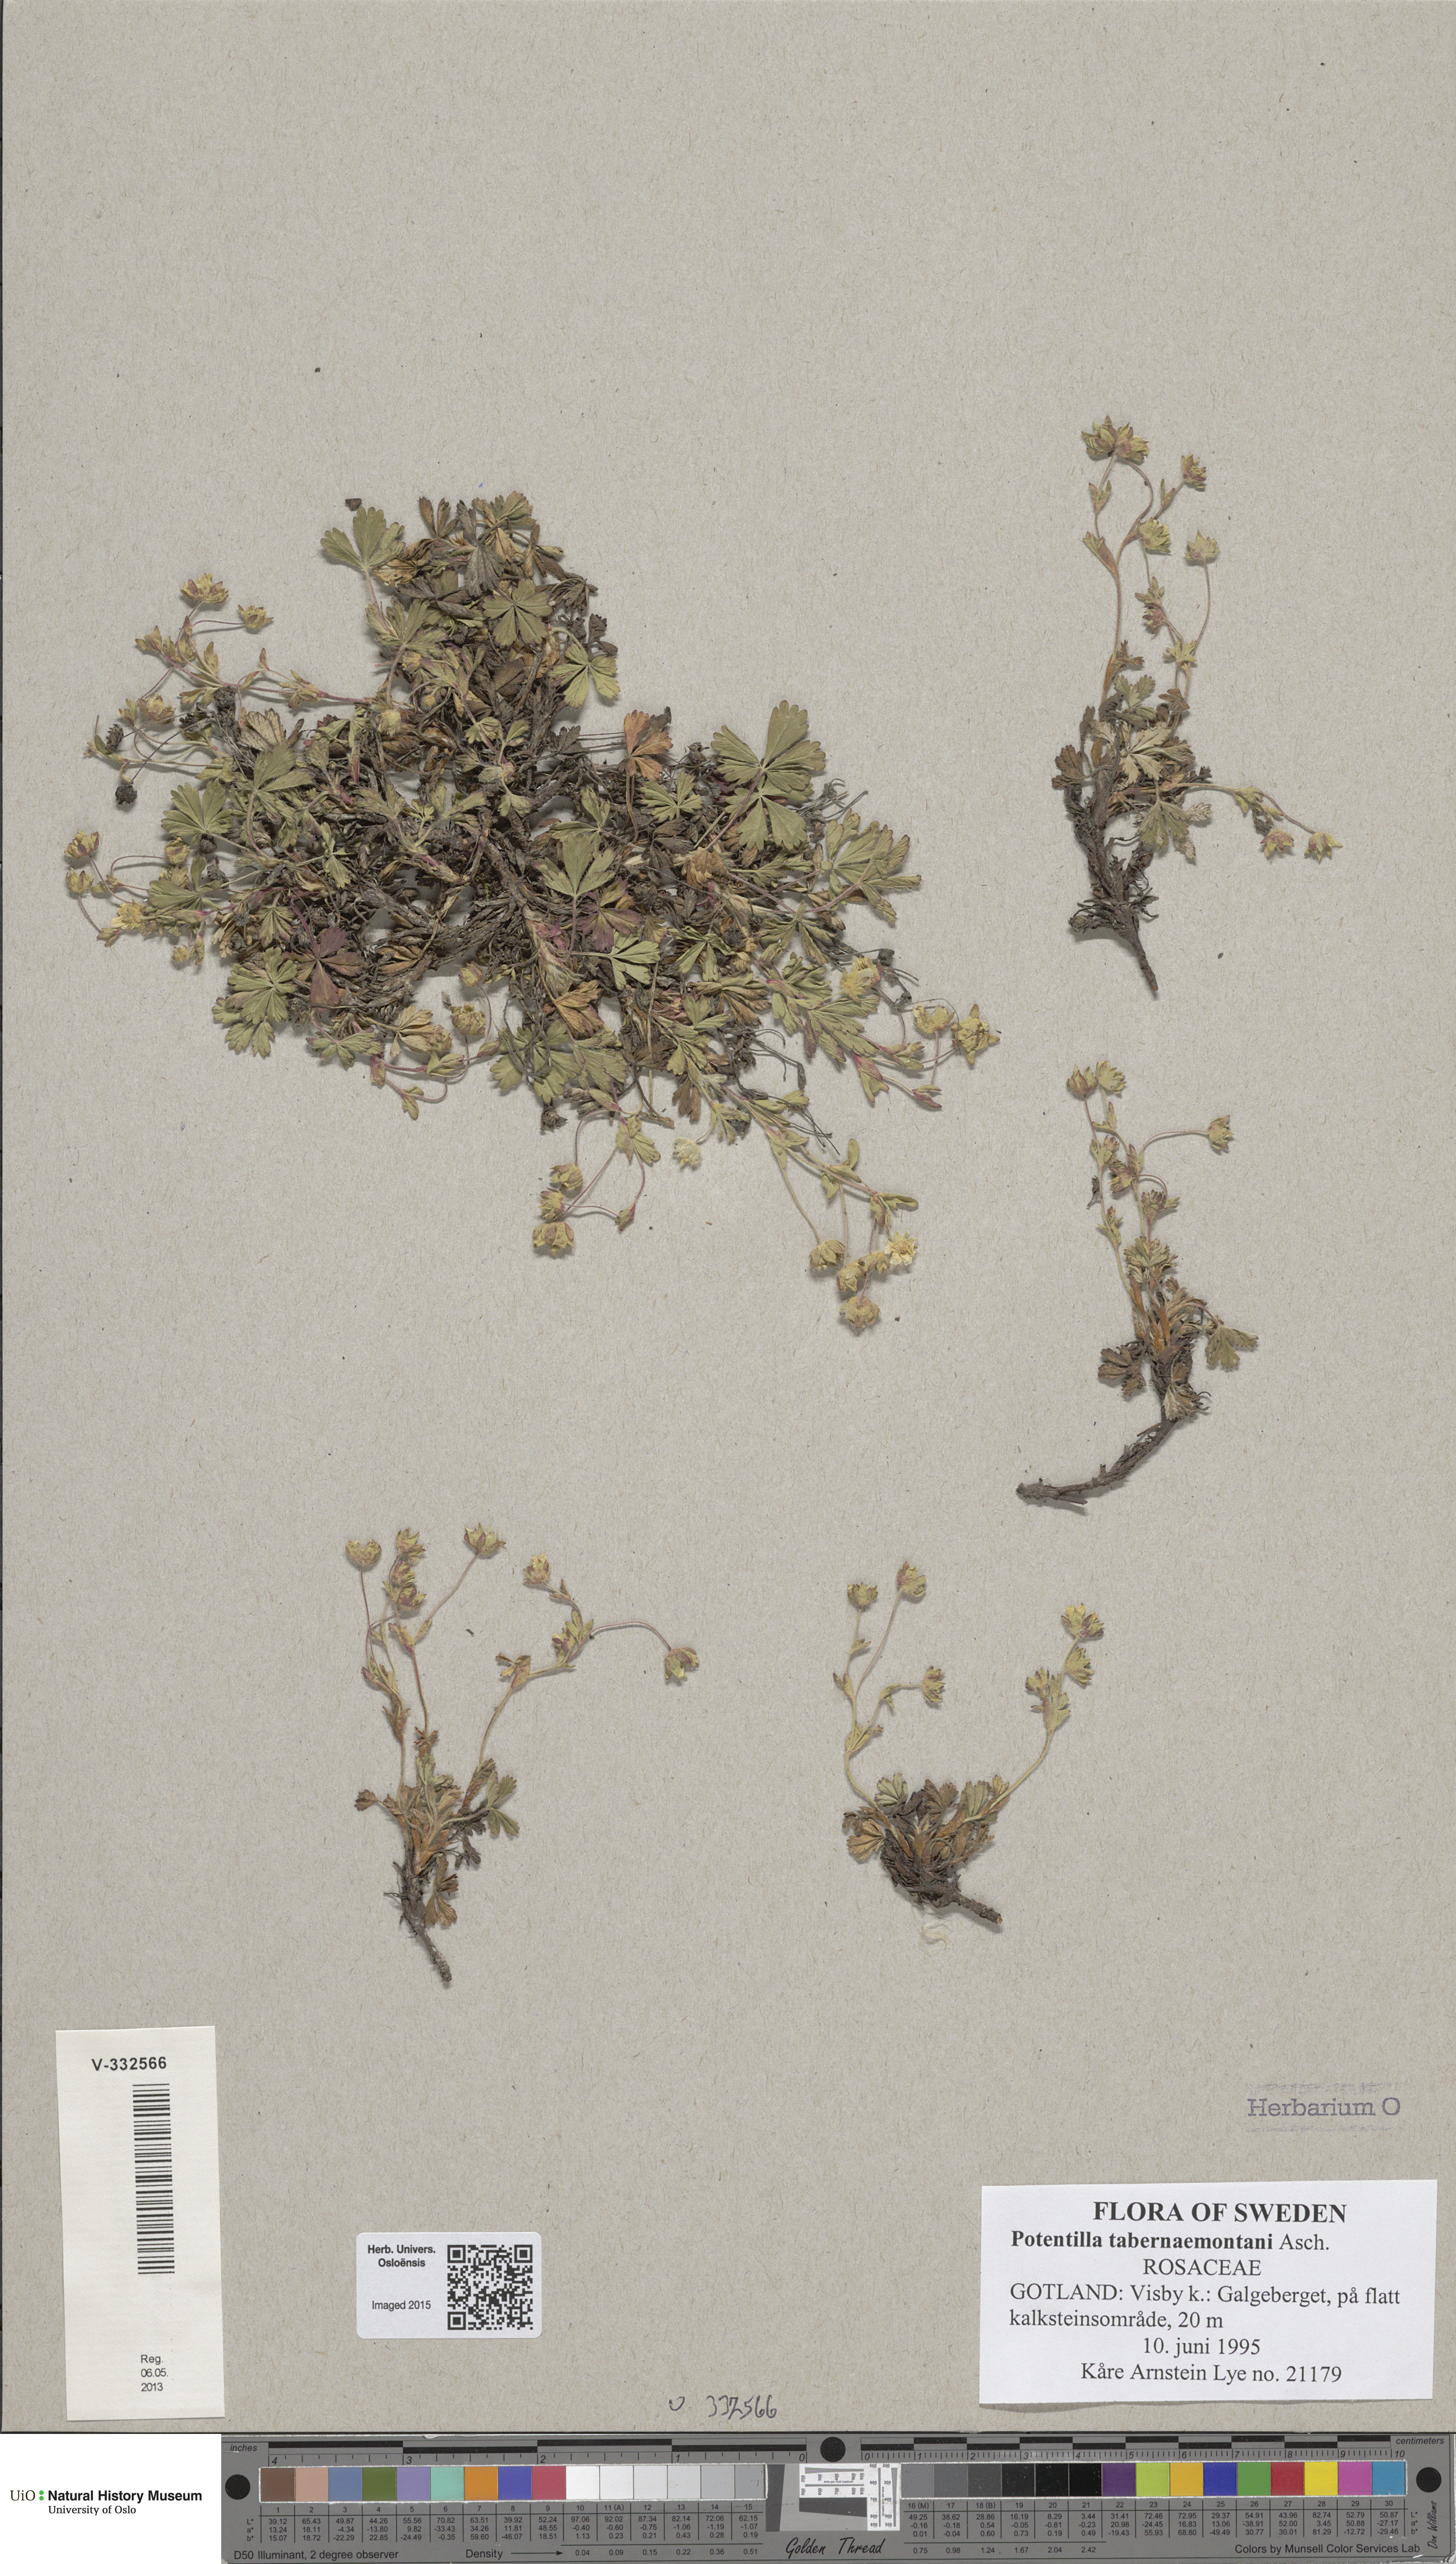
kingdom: Plantae
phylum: Tracheophyta
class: Magnoliopsida
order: Rosales
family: Rosaceae
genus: Potentilla
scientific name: Potentilla verna
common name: Spring cinquefoil
